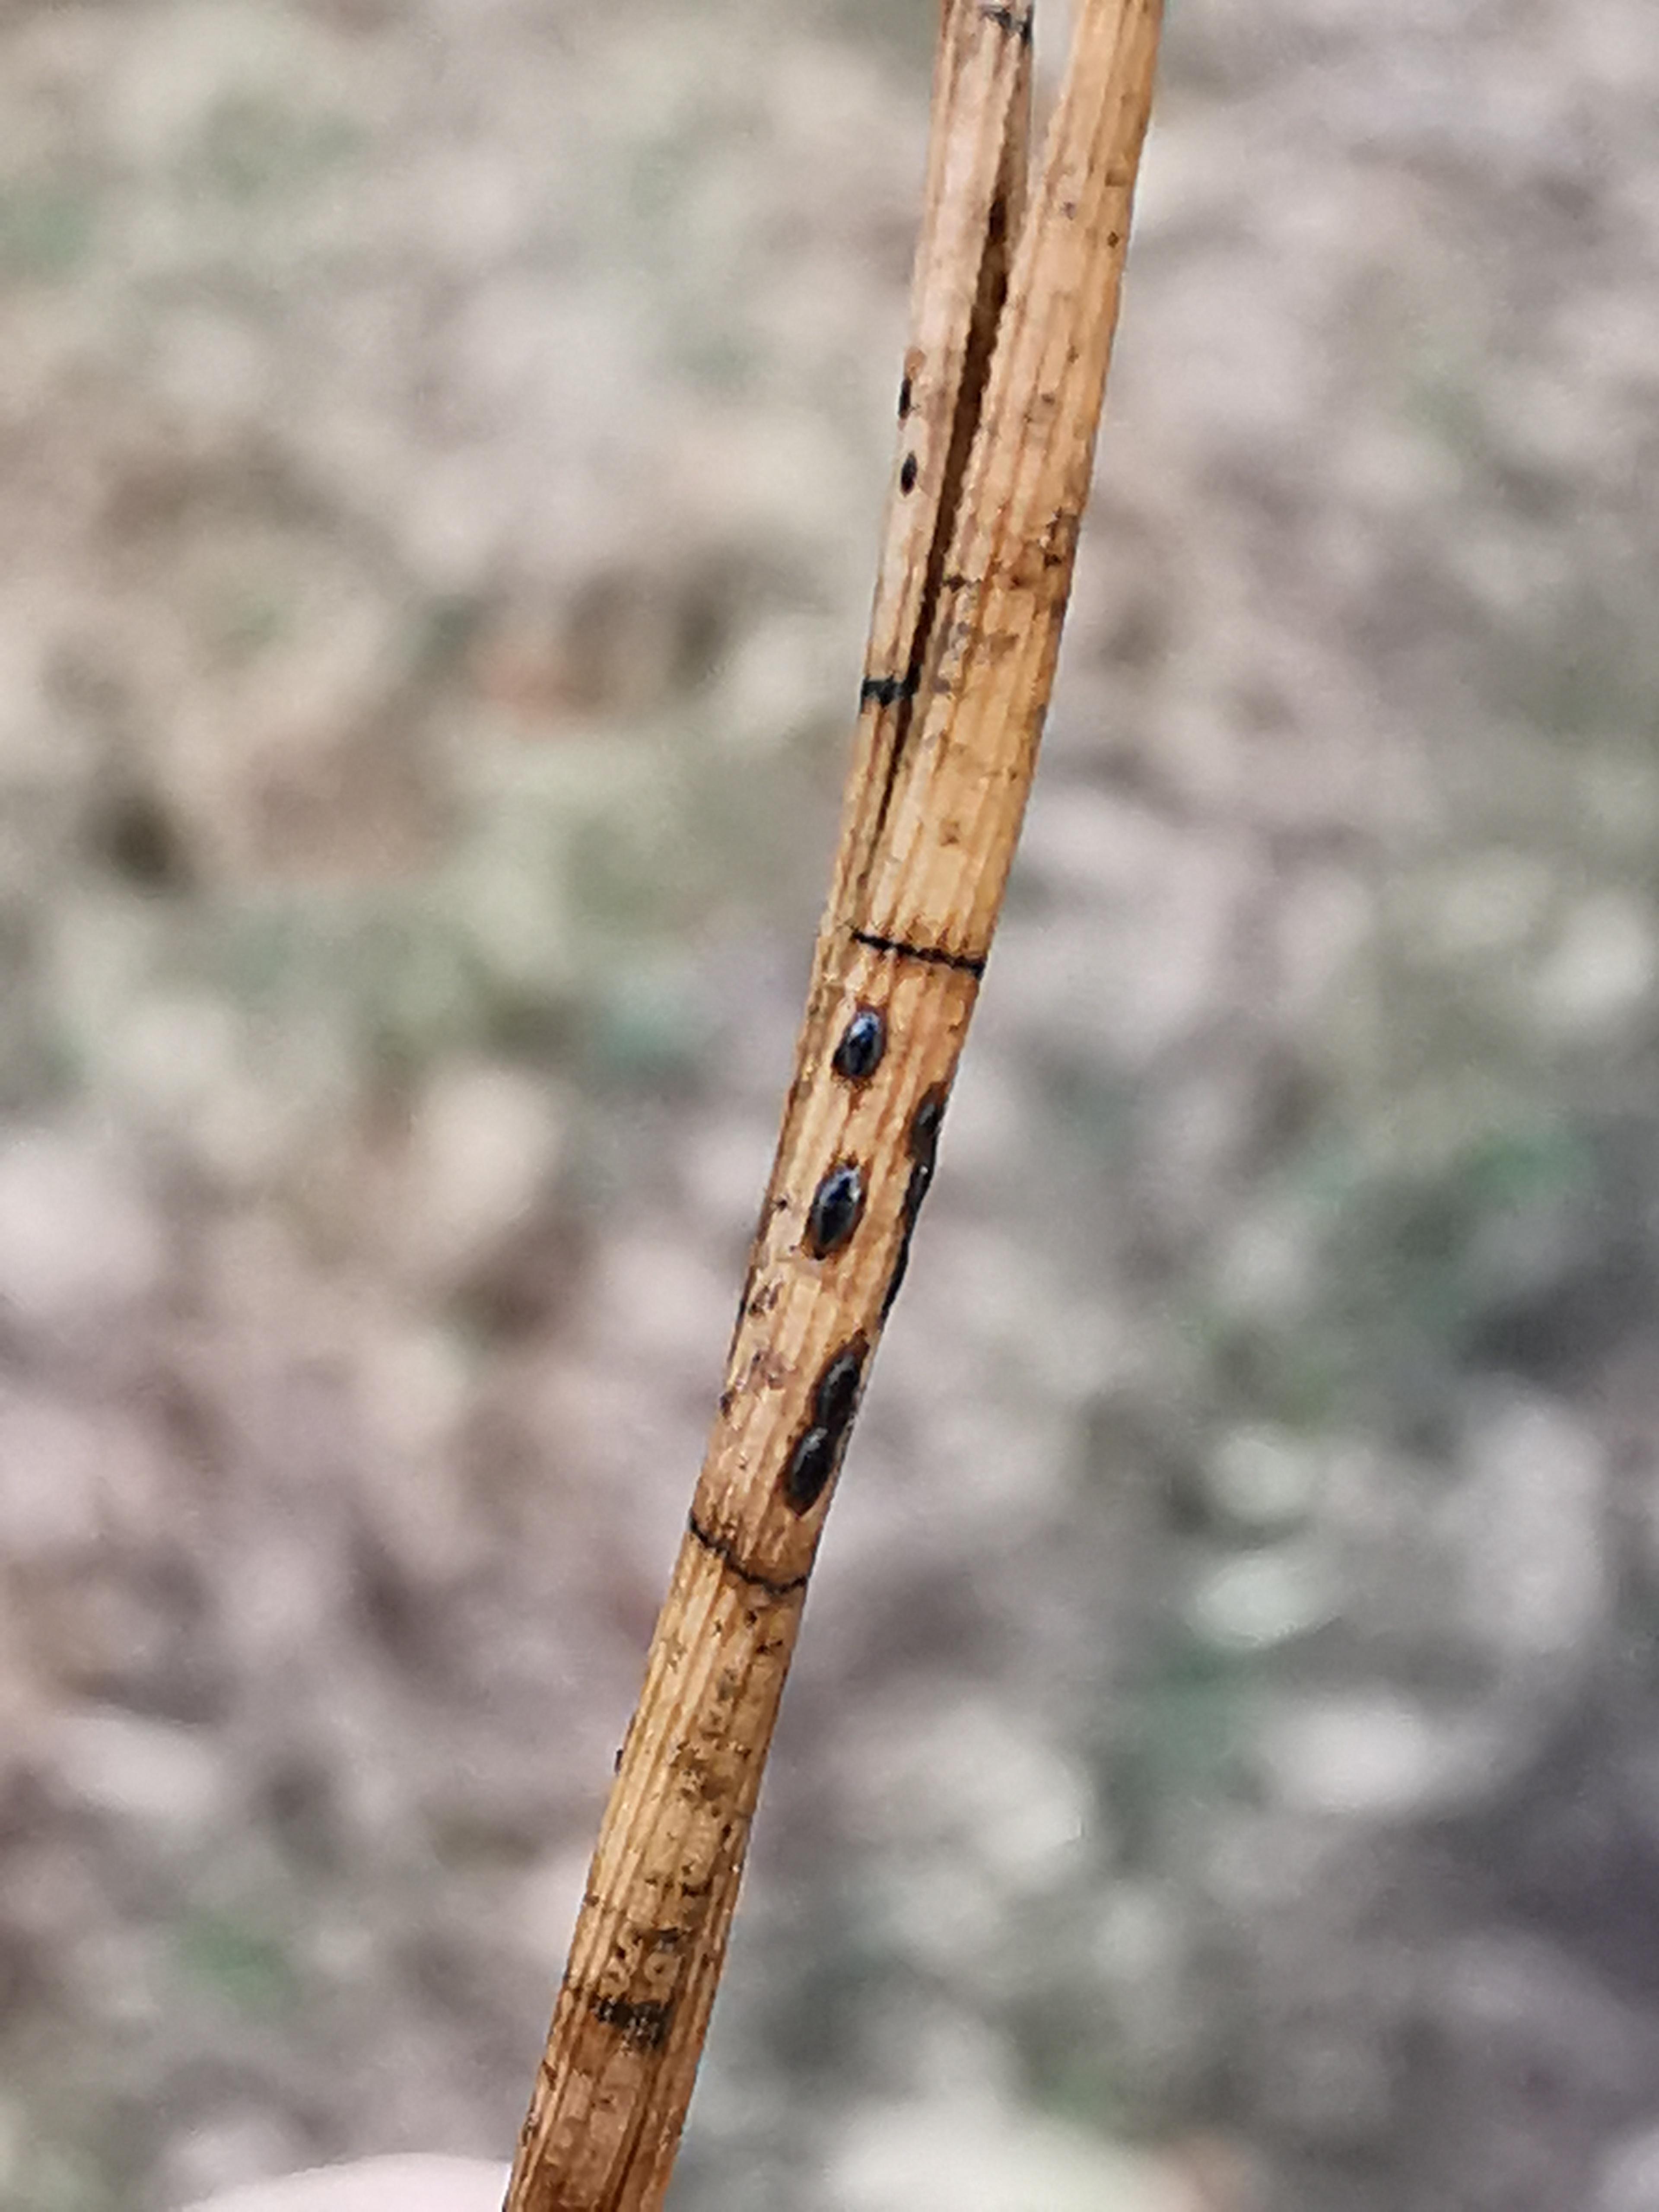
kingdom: Fungi
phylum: Ascomycota
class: Leotiomycetes
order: Rhytismatales
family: Rhytismataceae
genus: Lophodermium
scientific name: Lophodermium pinastri
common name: fyrre-fureplet
